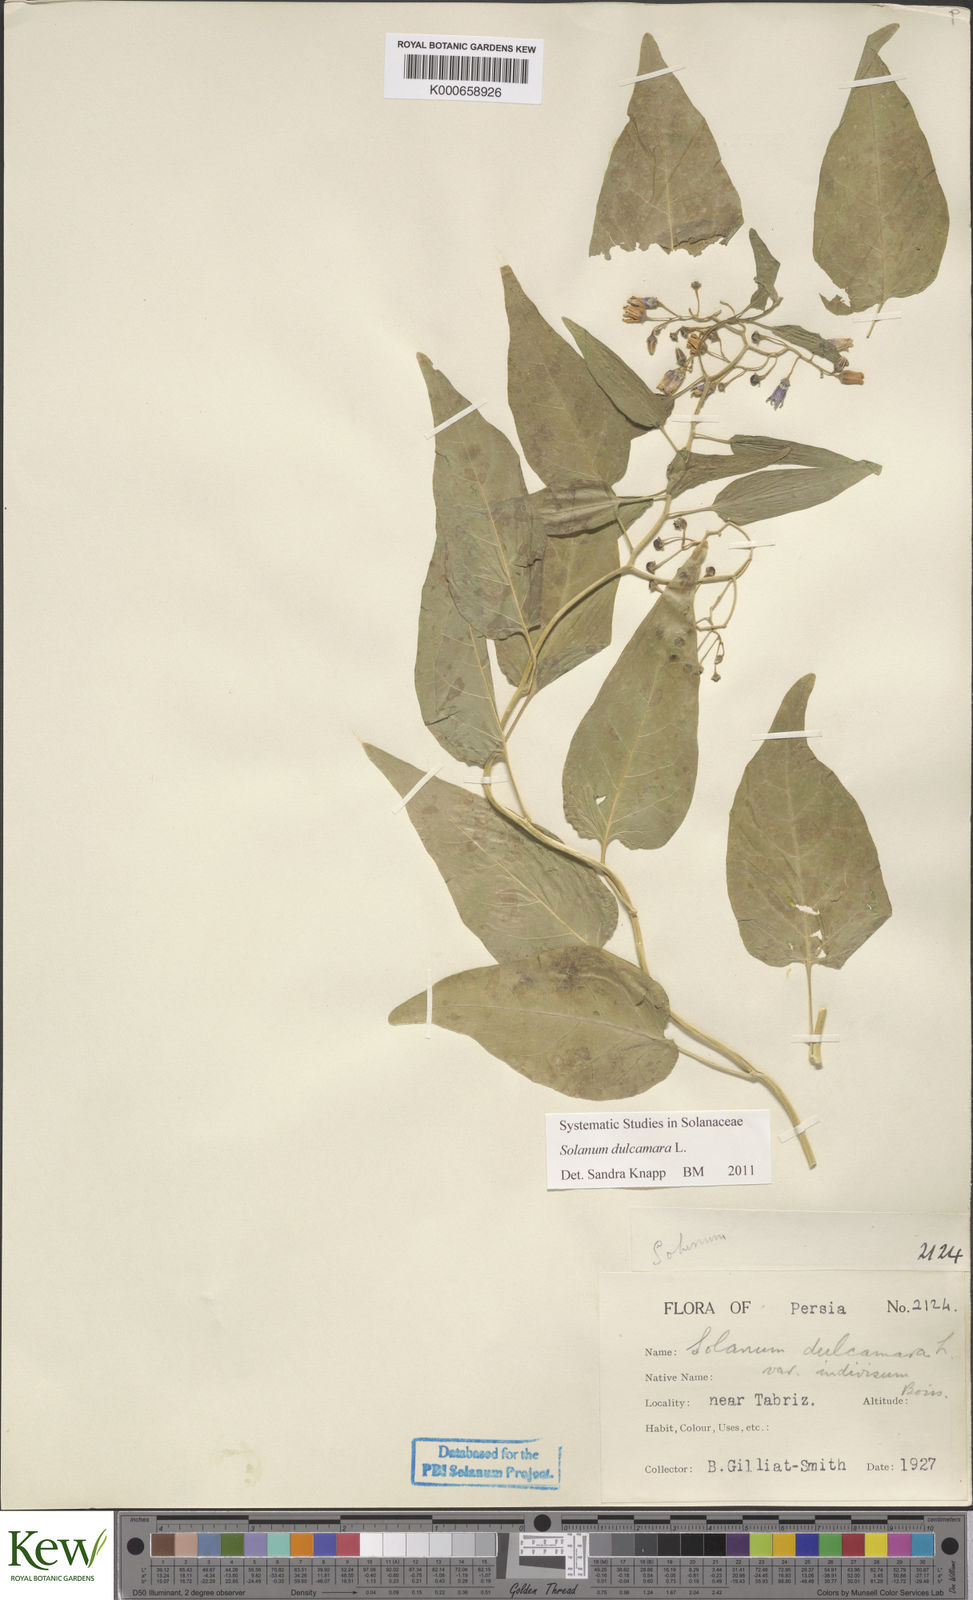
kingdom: Plantae
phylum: Tracheophyta
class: Magnoliopsida
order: Solanales
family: Solanaceae
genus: Solanum
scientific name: Solanum dulcamara
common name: Climbing nightshade
